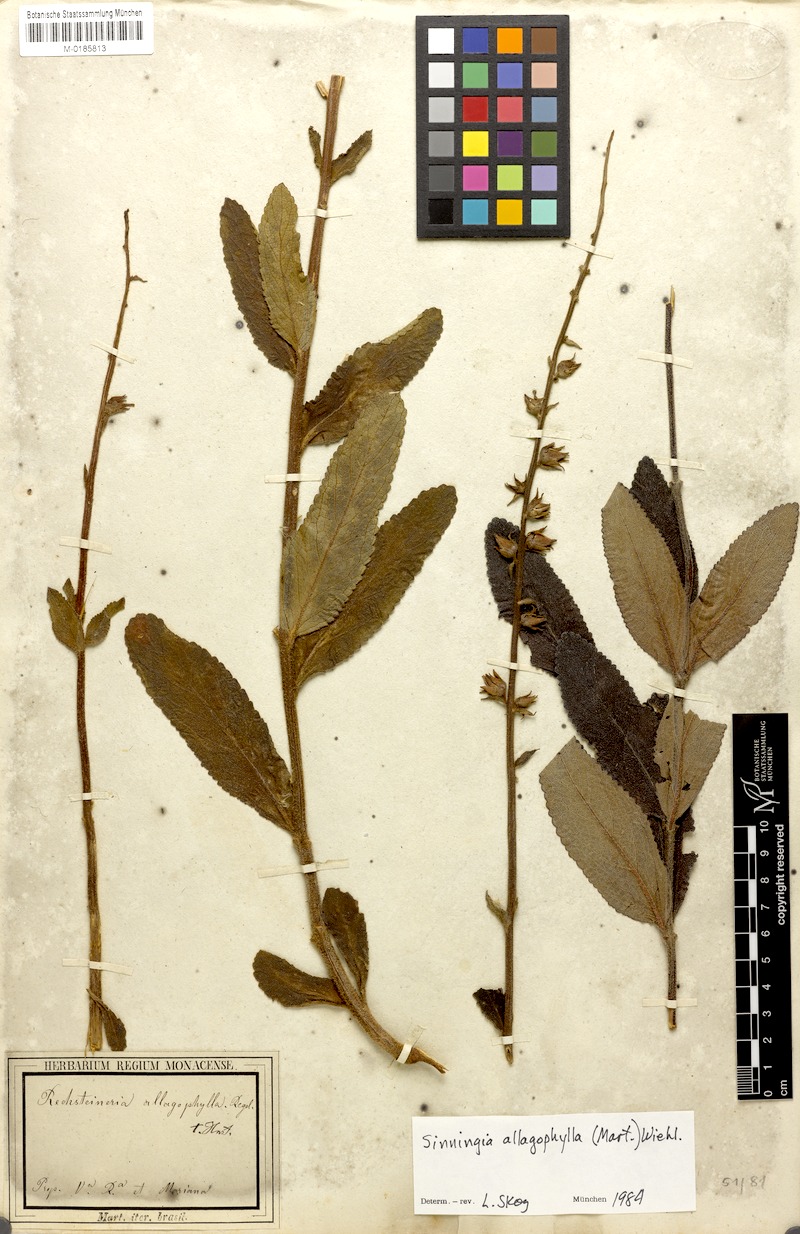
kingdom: Plantae
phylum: Tracheophyta
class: Magnoliopsida
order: Lamiales
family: Gesneriaceae
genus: Sinningia
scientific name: Sinningia allagophylla
